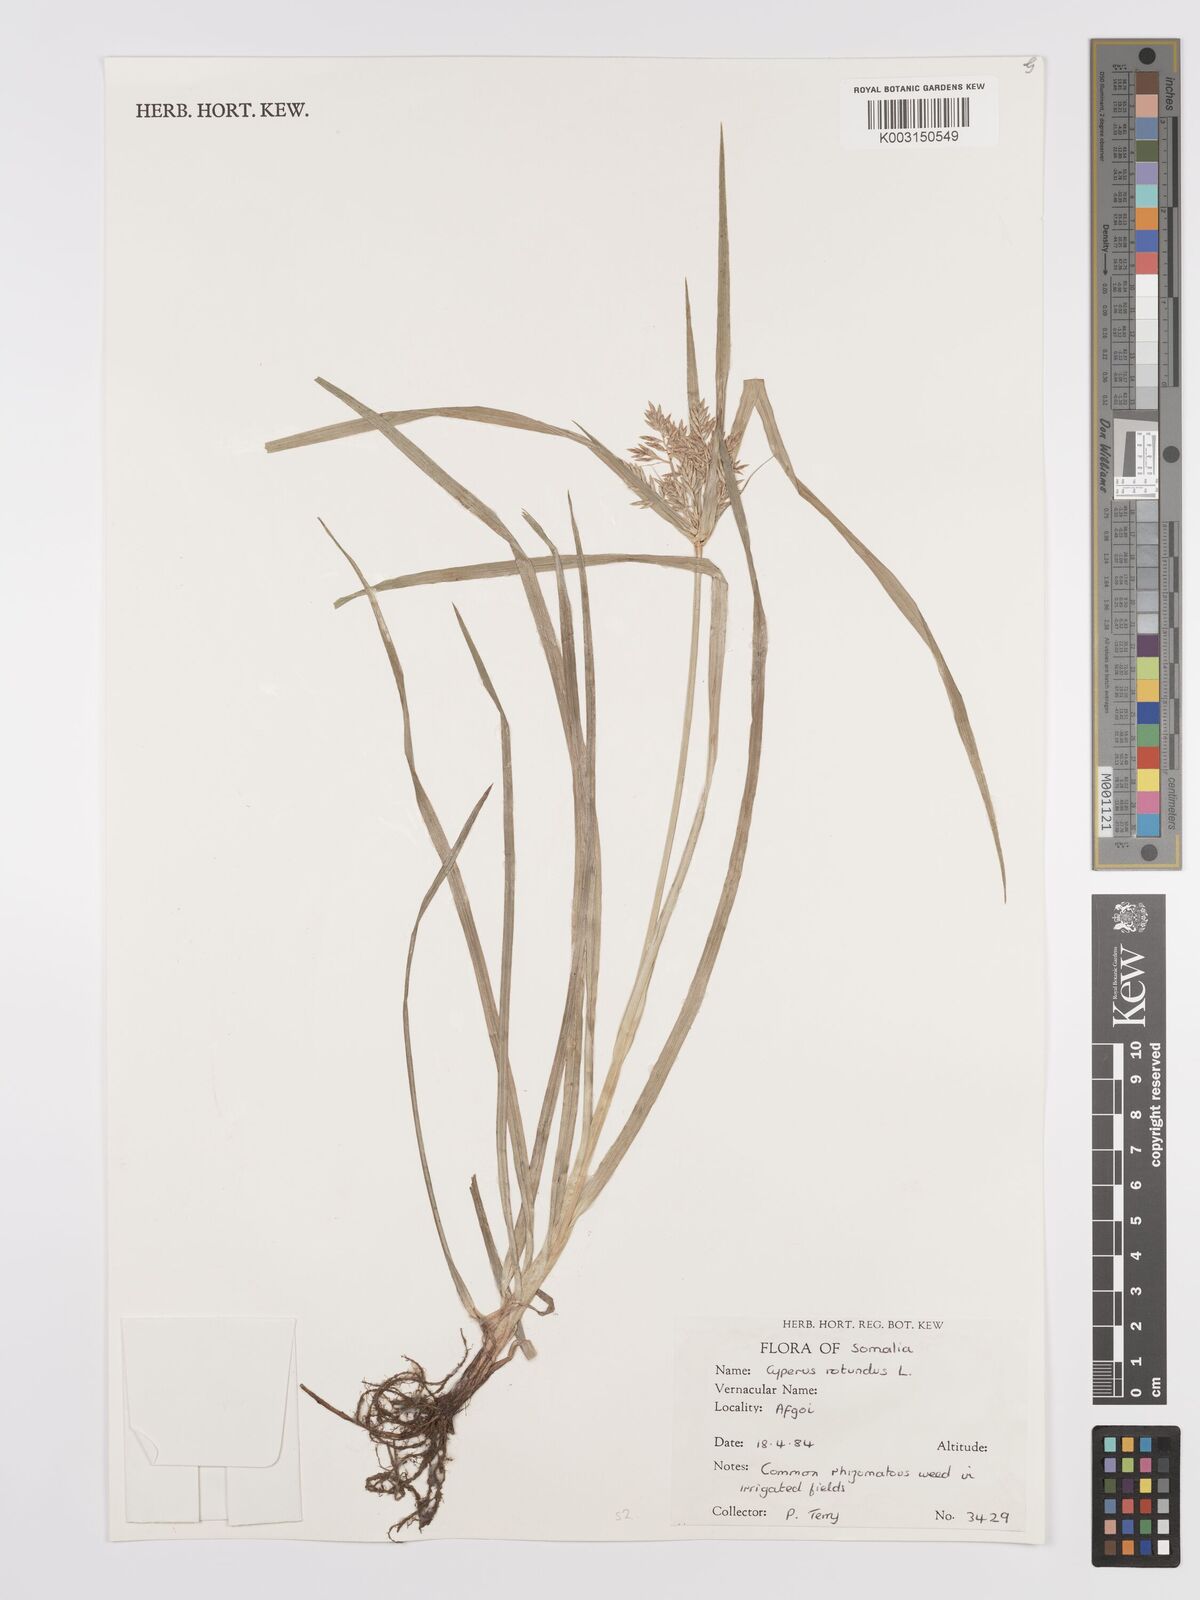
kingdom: Plantae
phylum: Tracheophyta
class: Liliopsida
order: Poales
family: Cyperaceae
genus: Cyperus
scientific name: Cyperus tuberosus
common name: Nut grass
